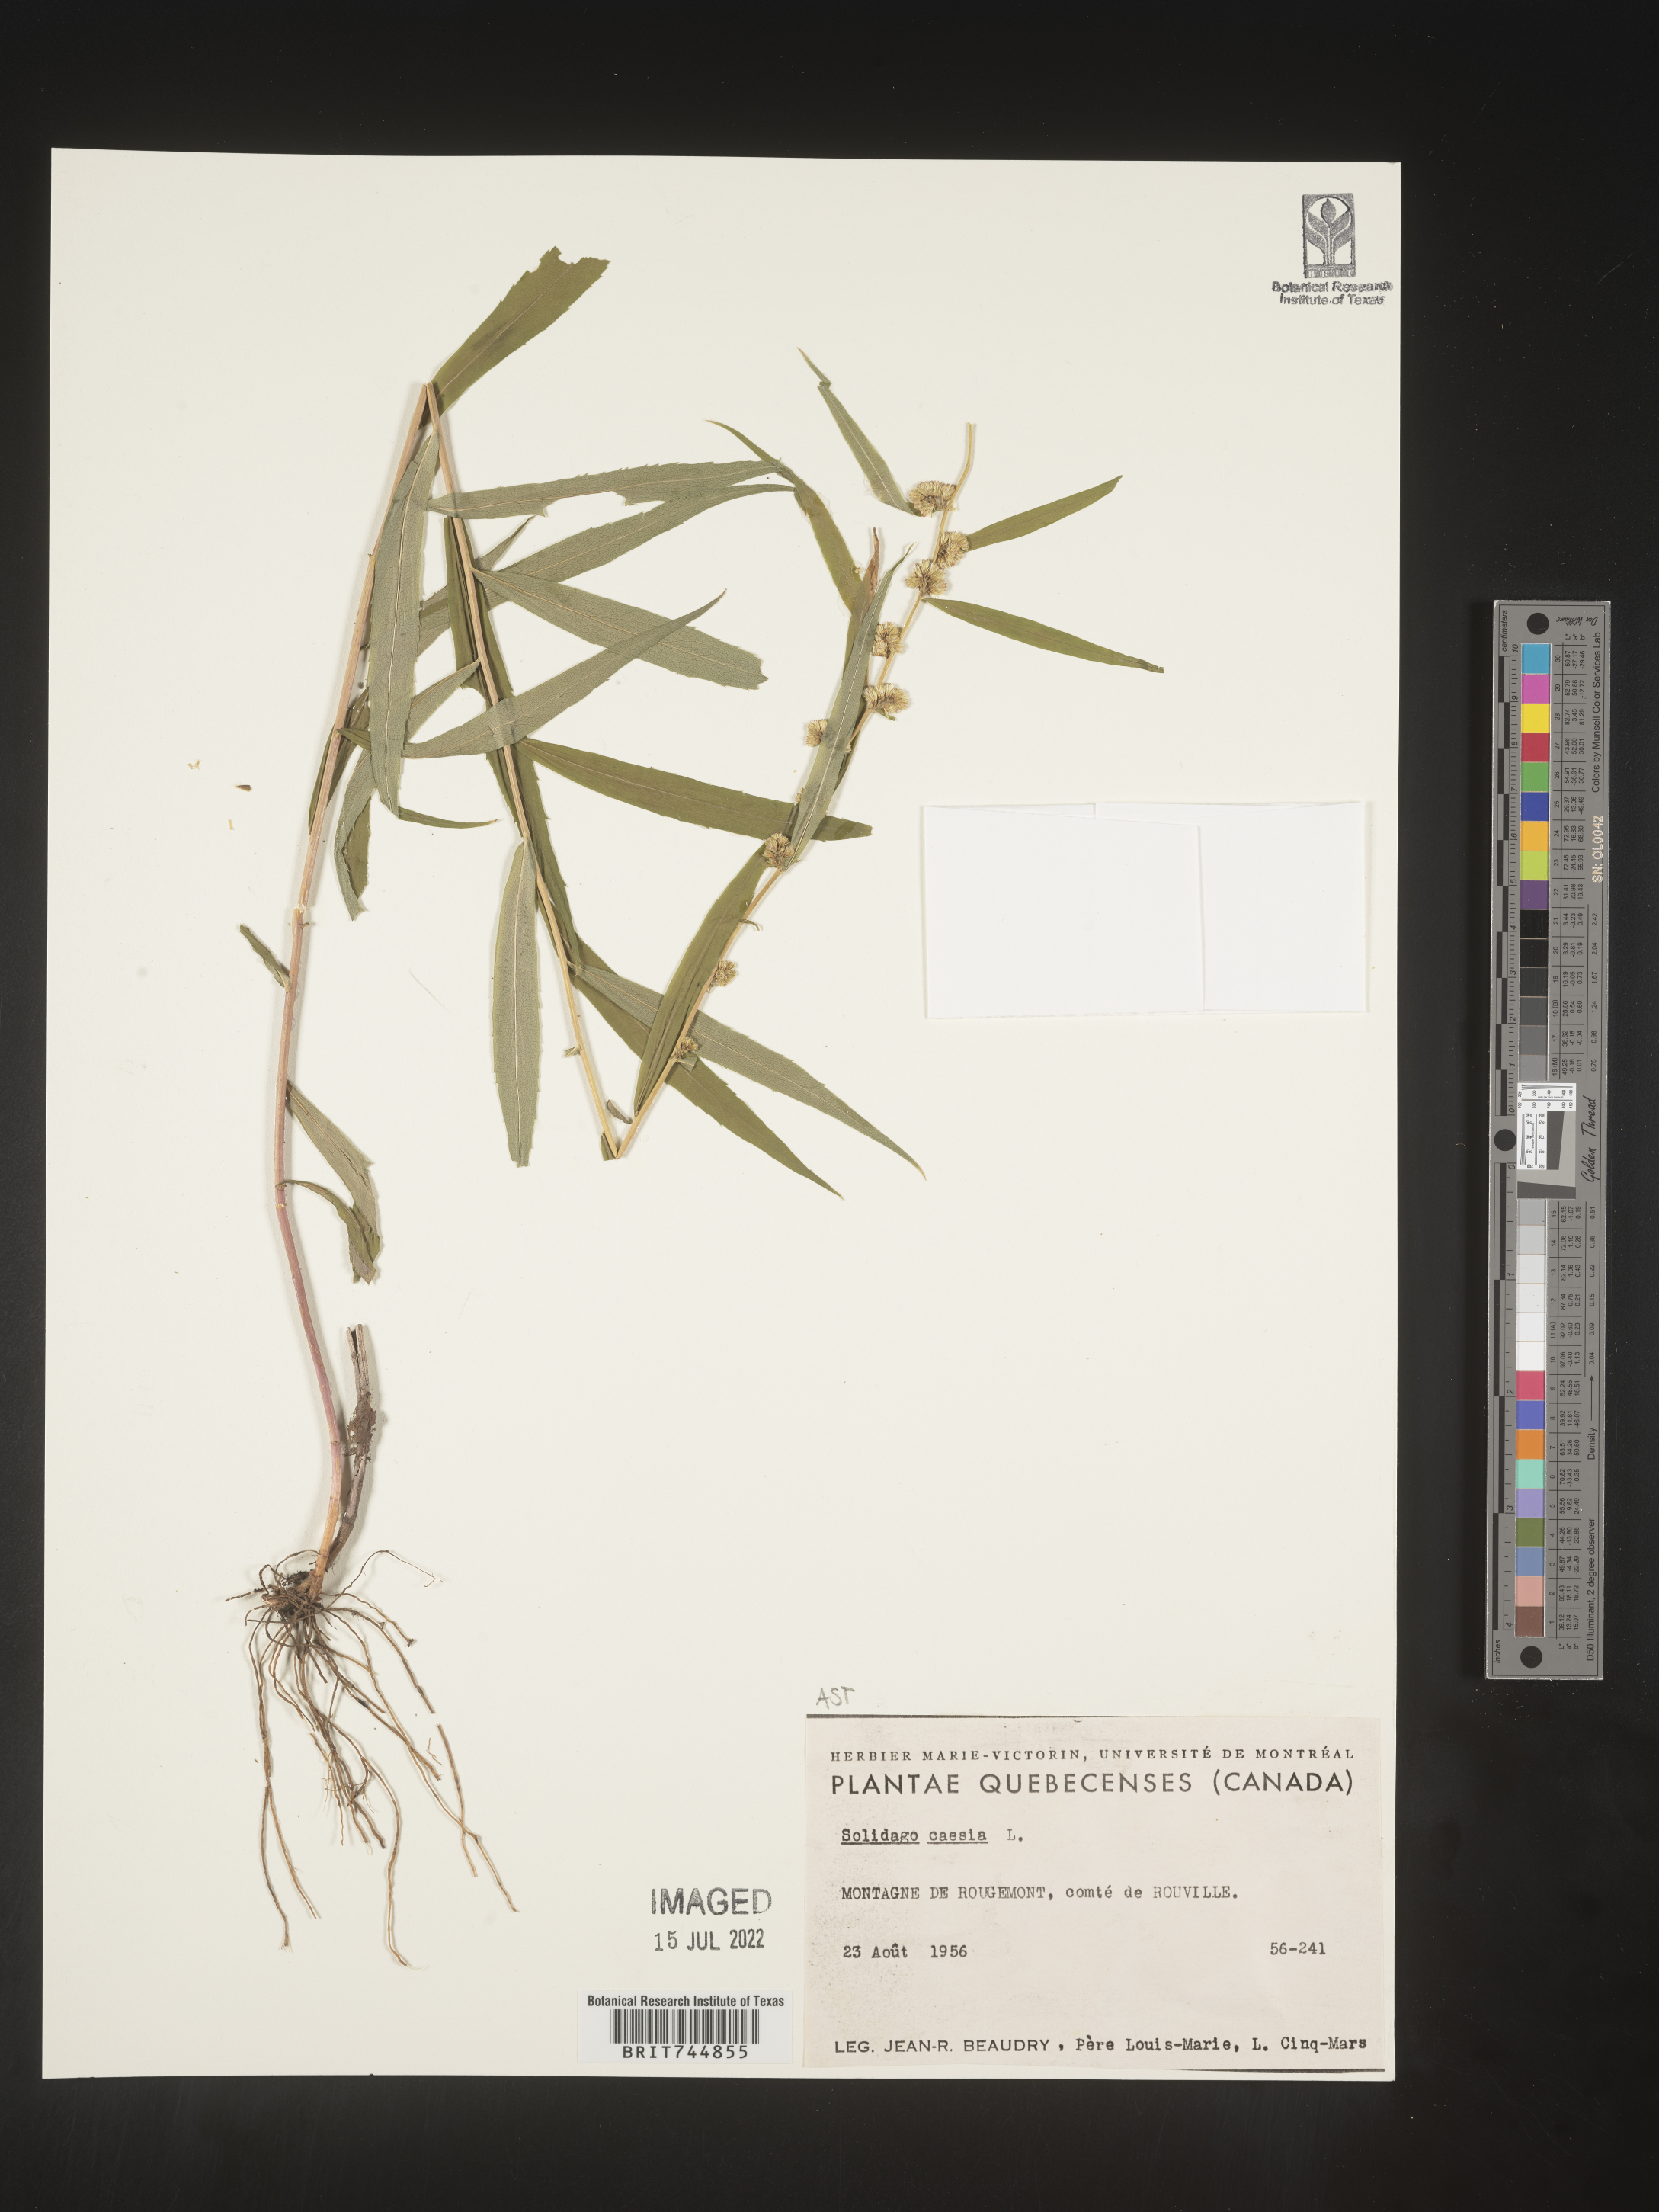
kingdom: Plantae
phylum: Tracheophyta
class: Magnoliopsida
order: Asterales
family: Asteraceae
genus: Solidago
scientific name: Solidago caesia
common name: Woodland goldenrod
